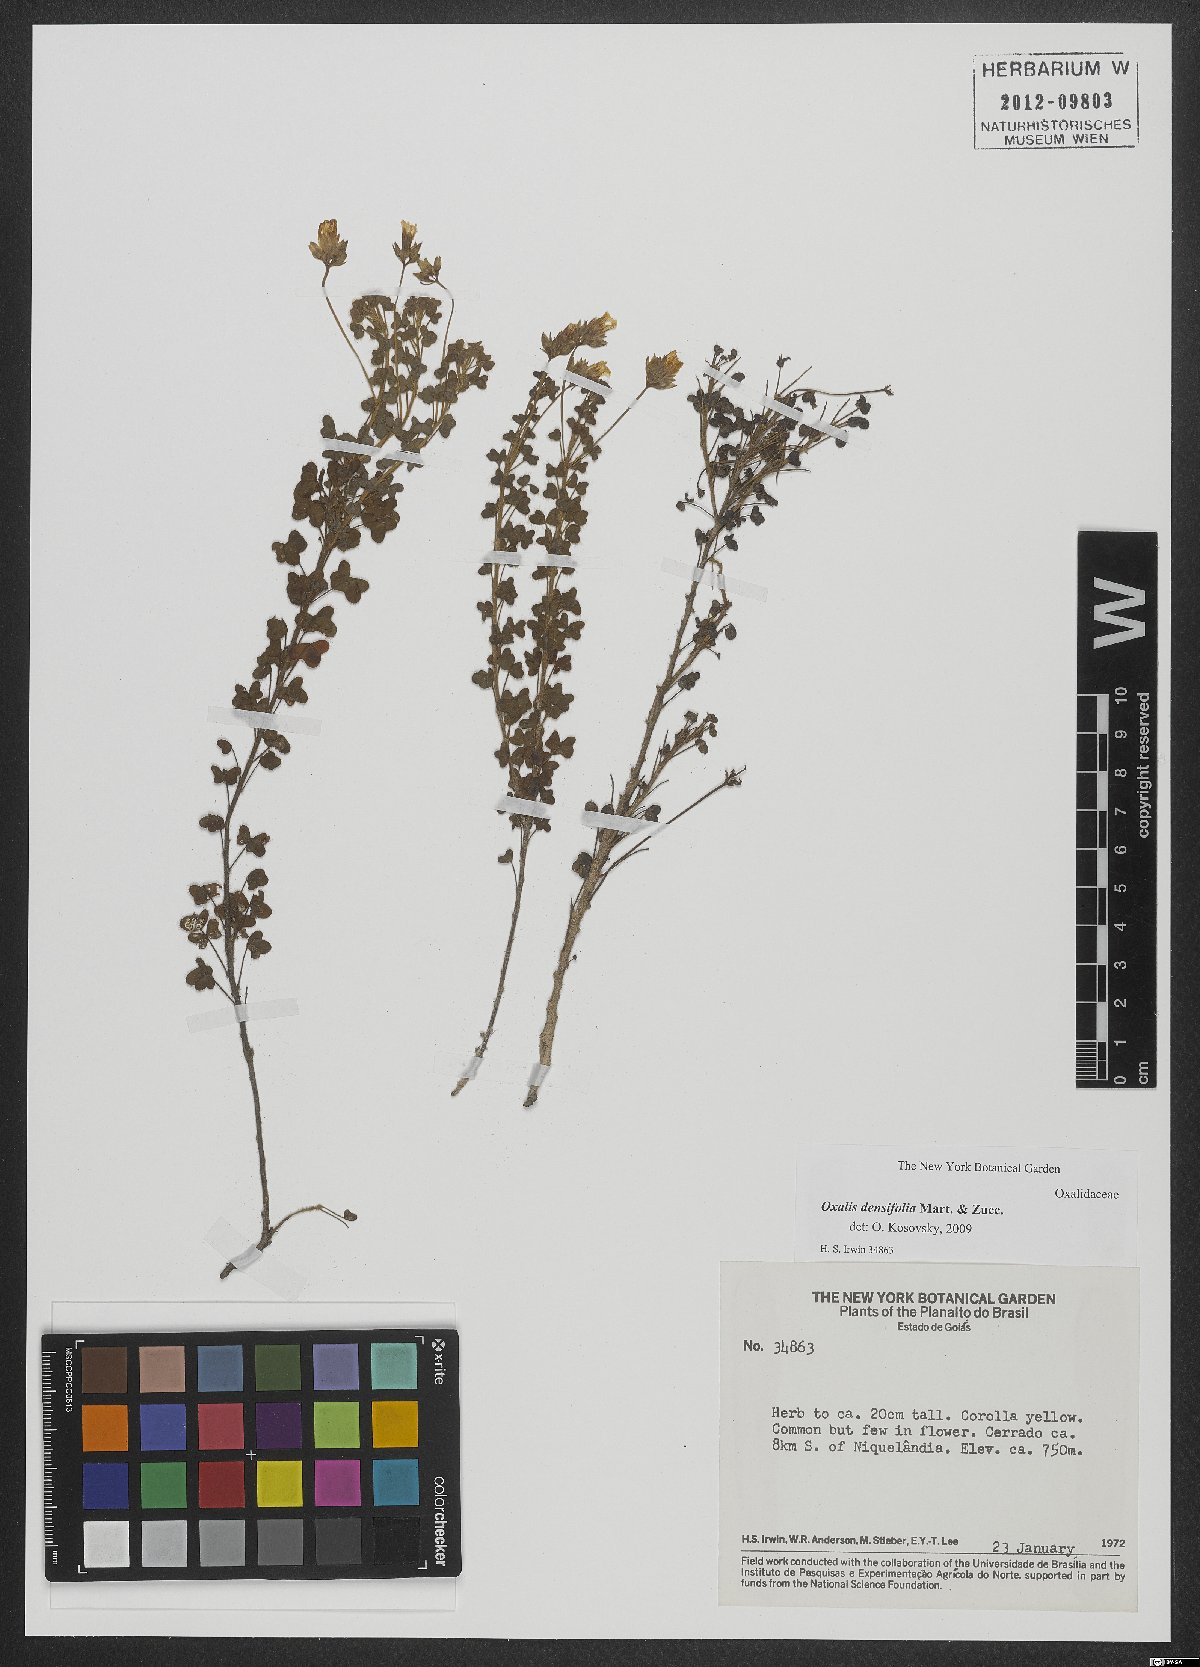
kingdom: Plantae
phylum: Tracheophyta
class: Magnoliopsida
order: Oxalidales
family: Oxalidaceae
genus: Oxalis
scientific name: Oxalis confertifolia
